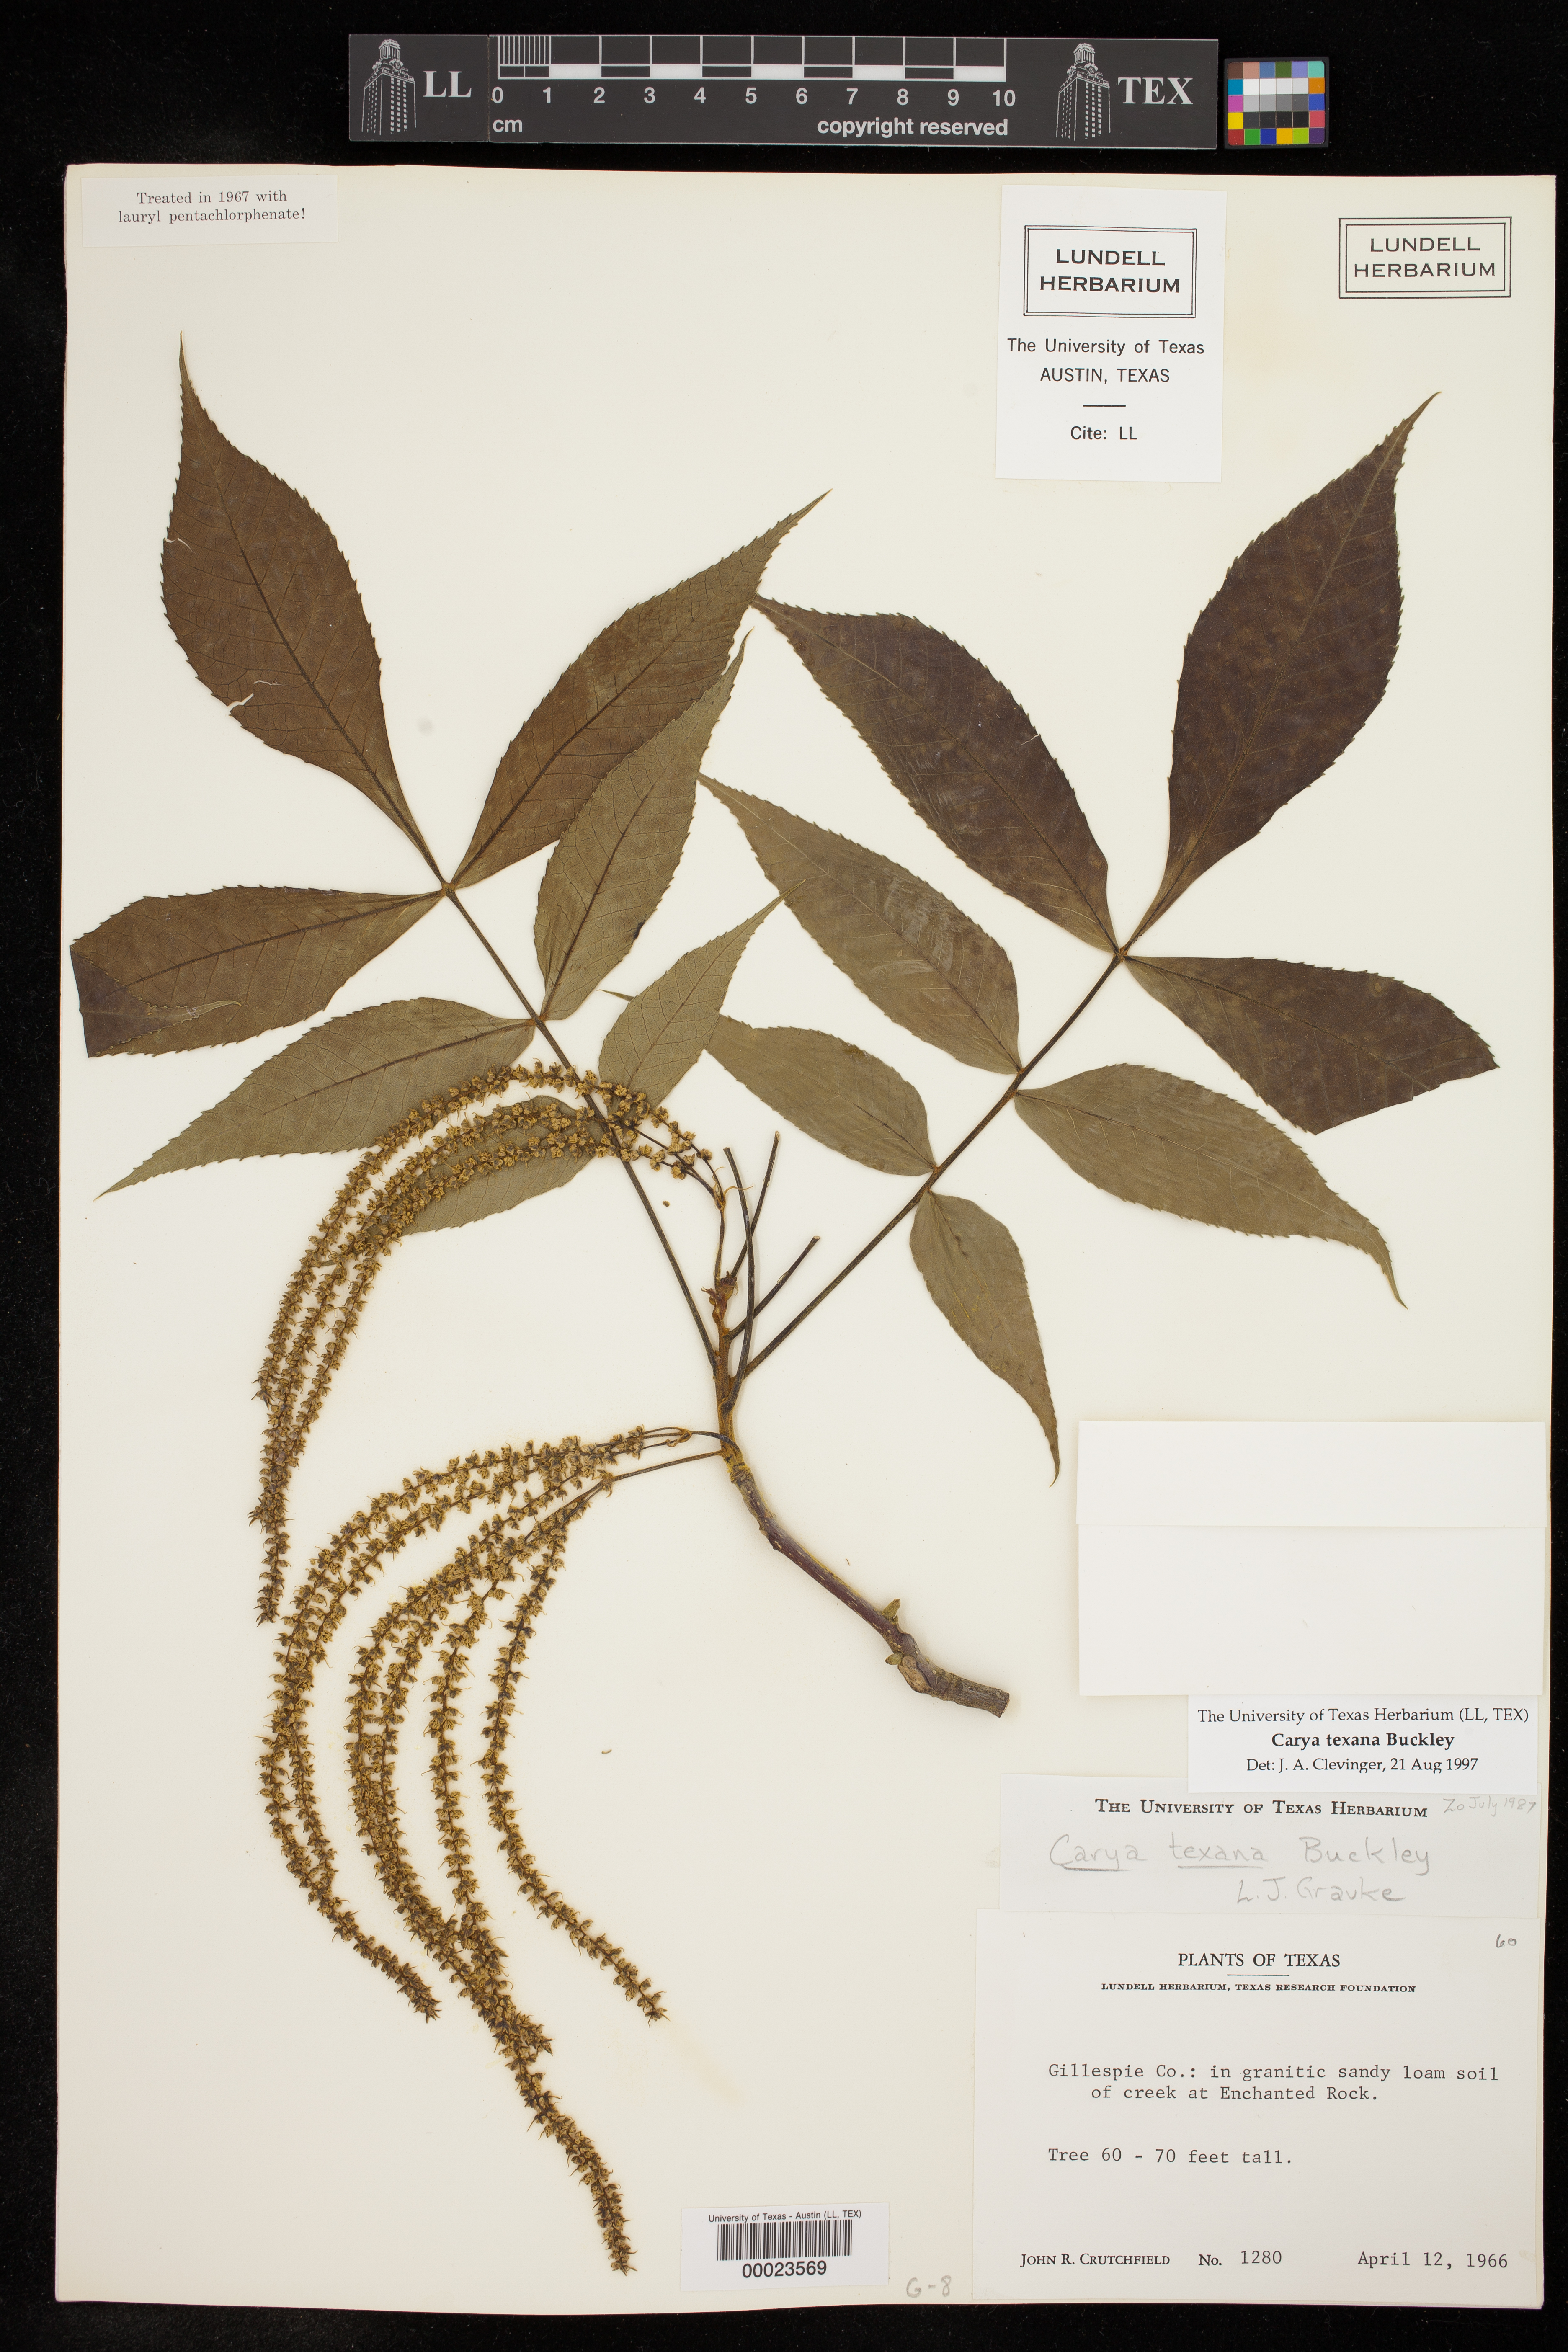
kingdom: Plantae
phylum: Tracheophyta
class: Magnoliopsida
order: Fagales
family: Juglandaceae
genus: Carya
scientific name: Carya texana
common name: Black hickory
